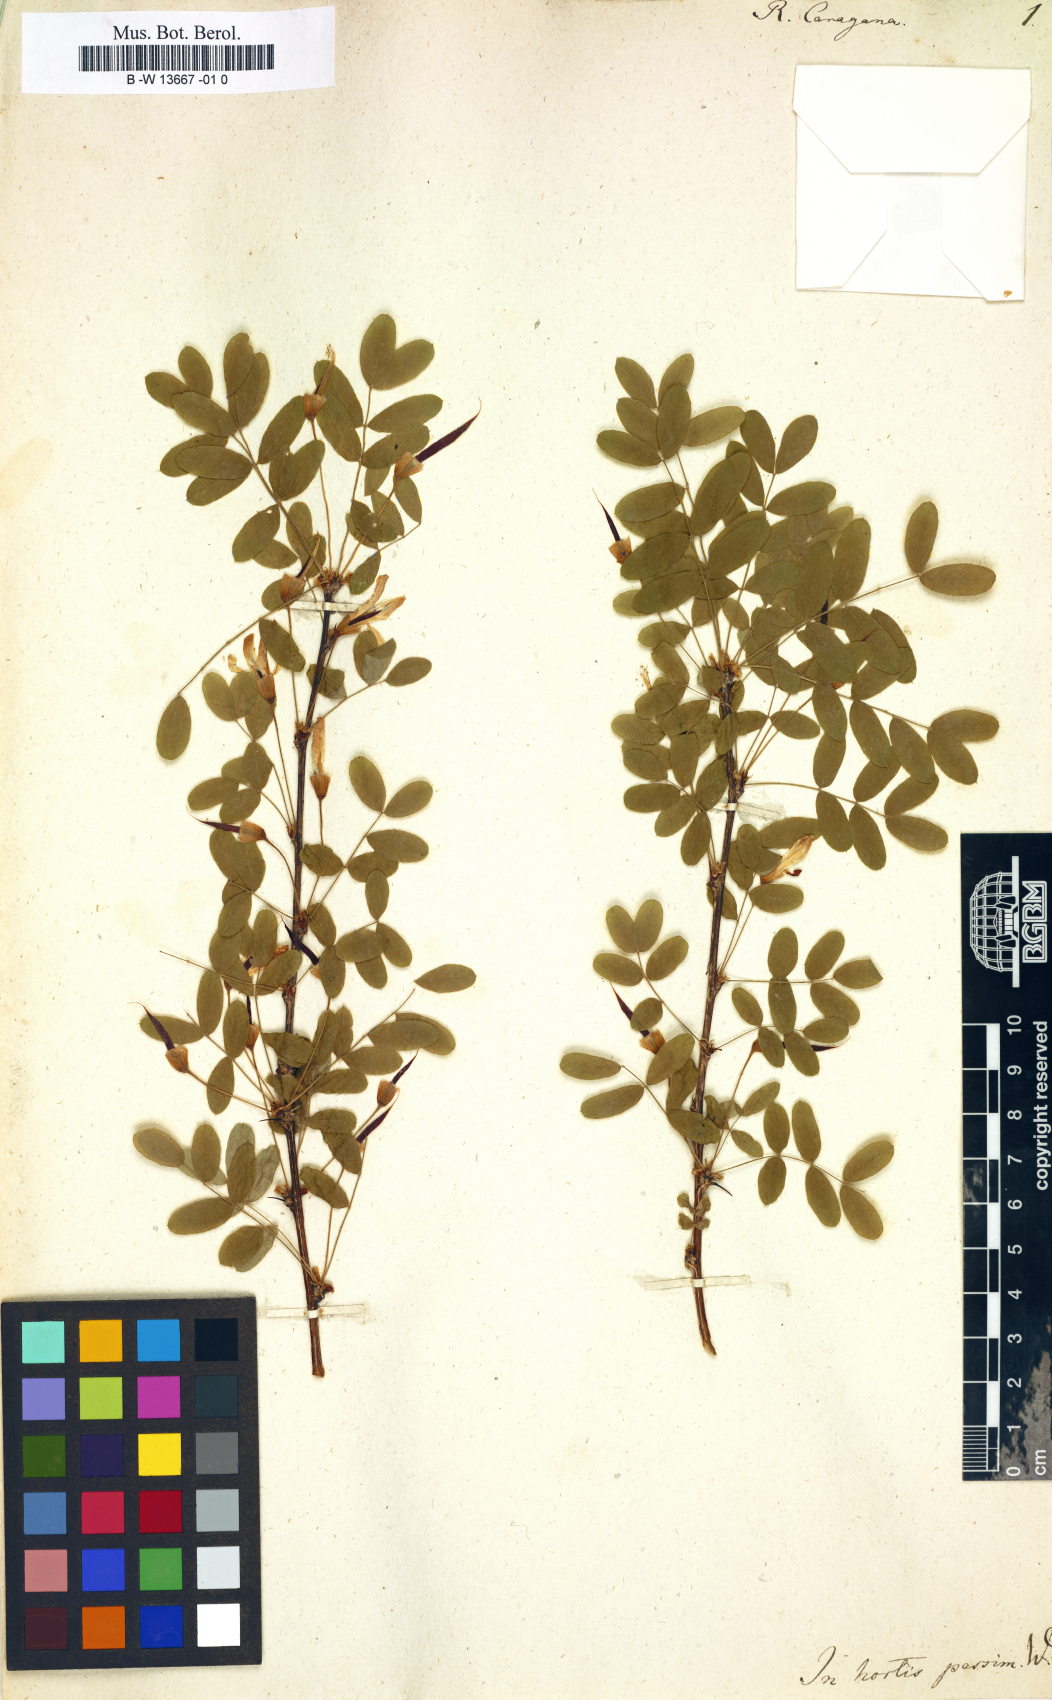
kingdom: Plantae
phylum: Tracheophyta
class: Magnoliopsida
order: Fabales
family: Fabaceae
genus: Caragana
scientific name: Caragana arborescens
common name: Siberian peashrub
